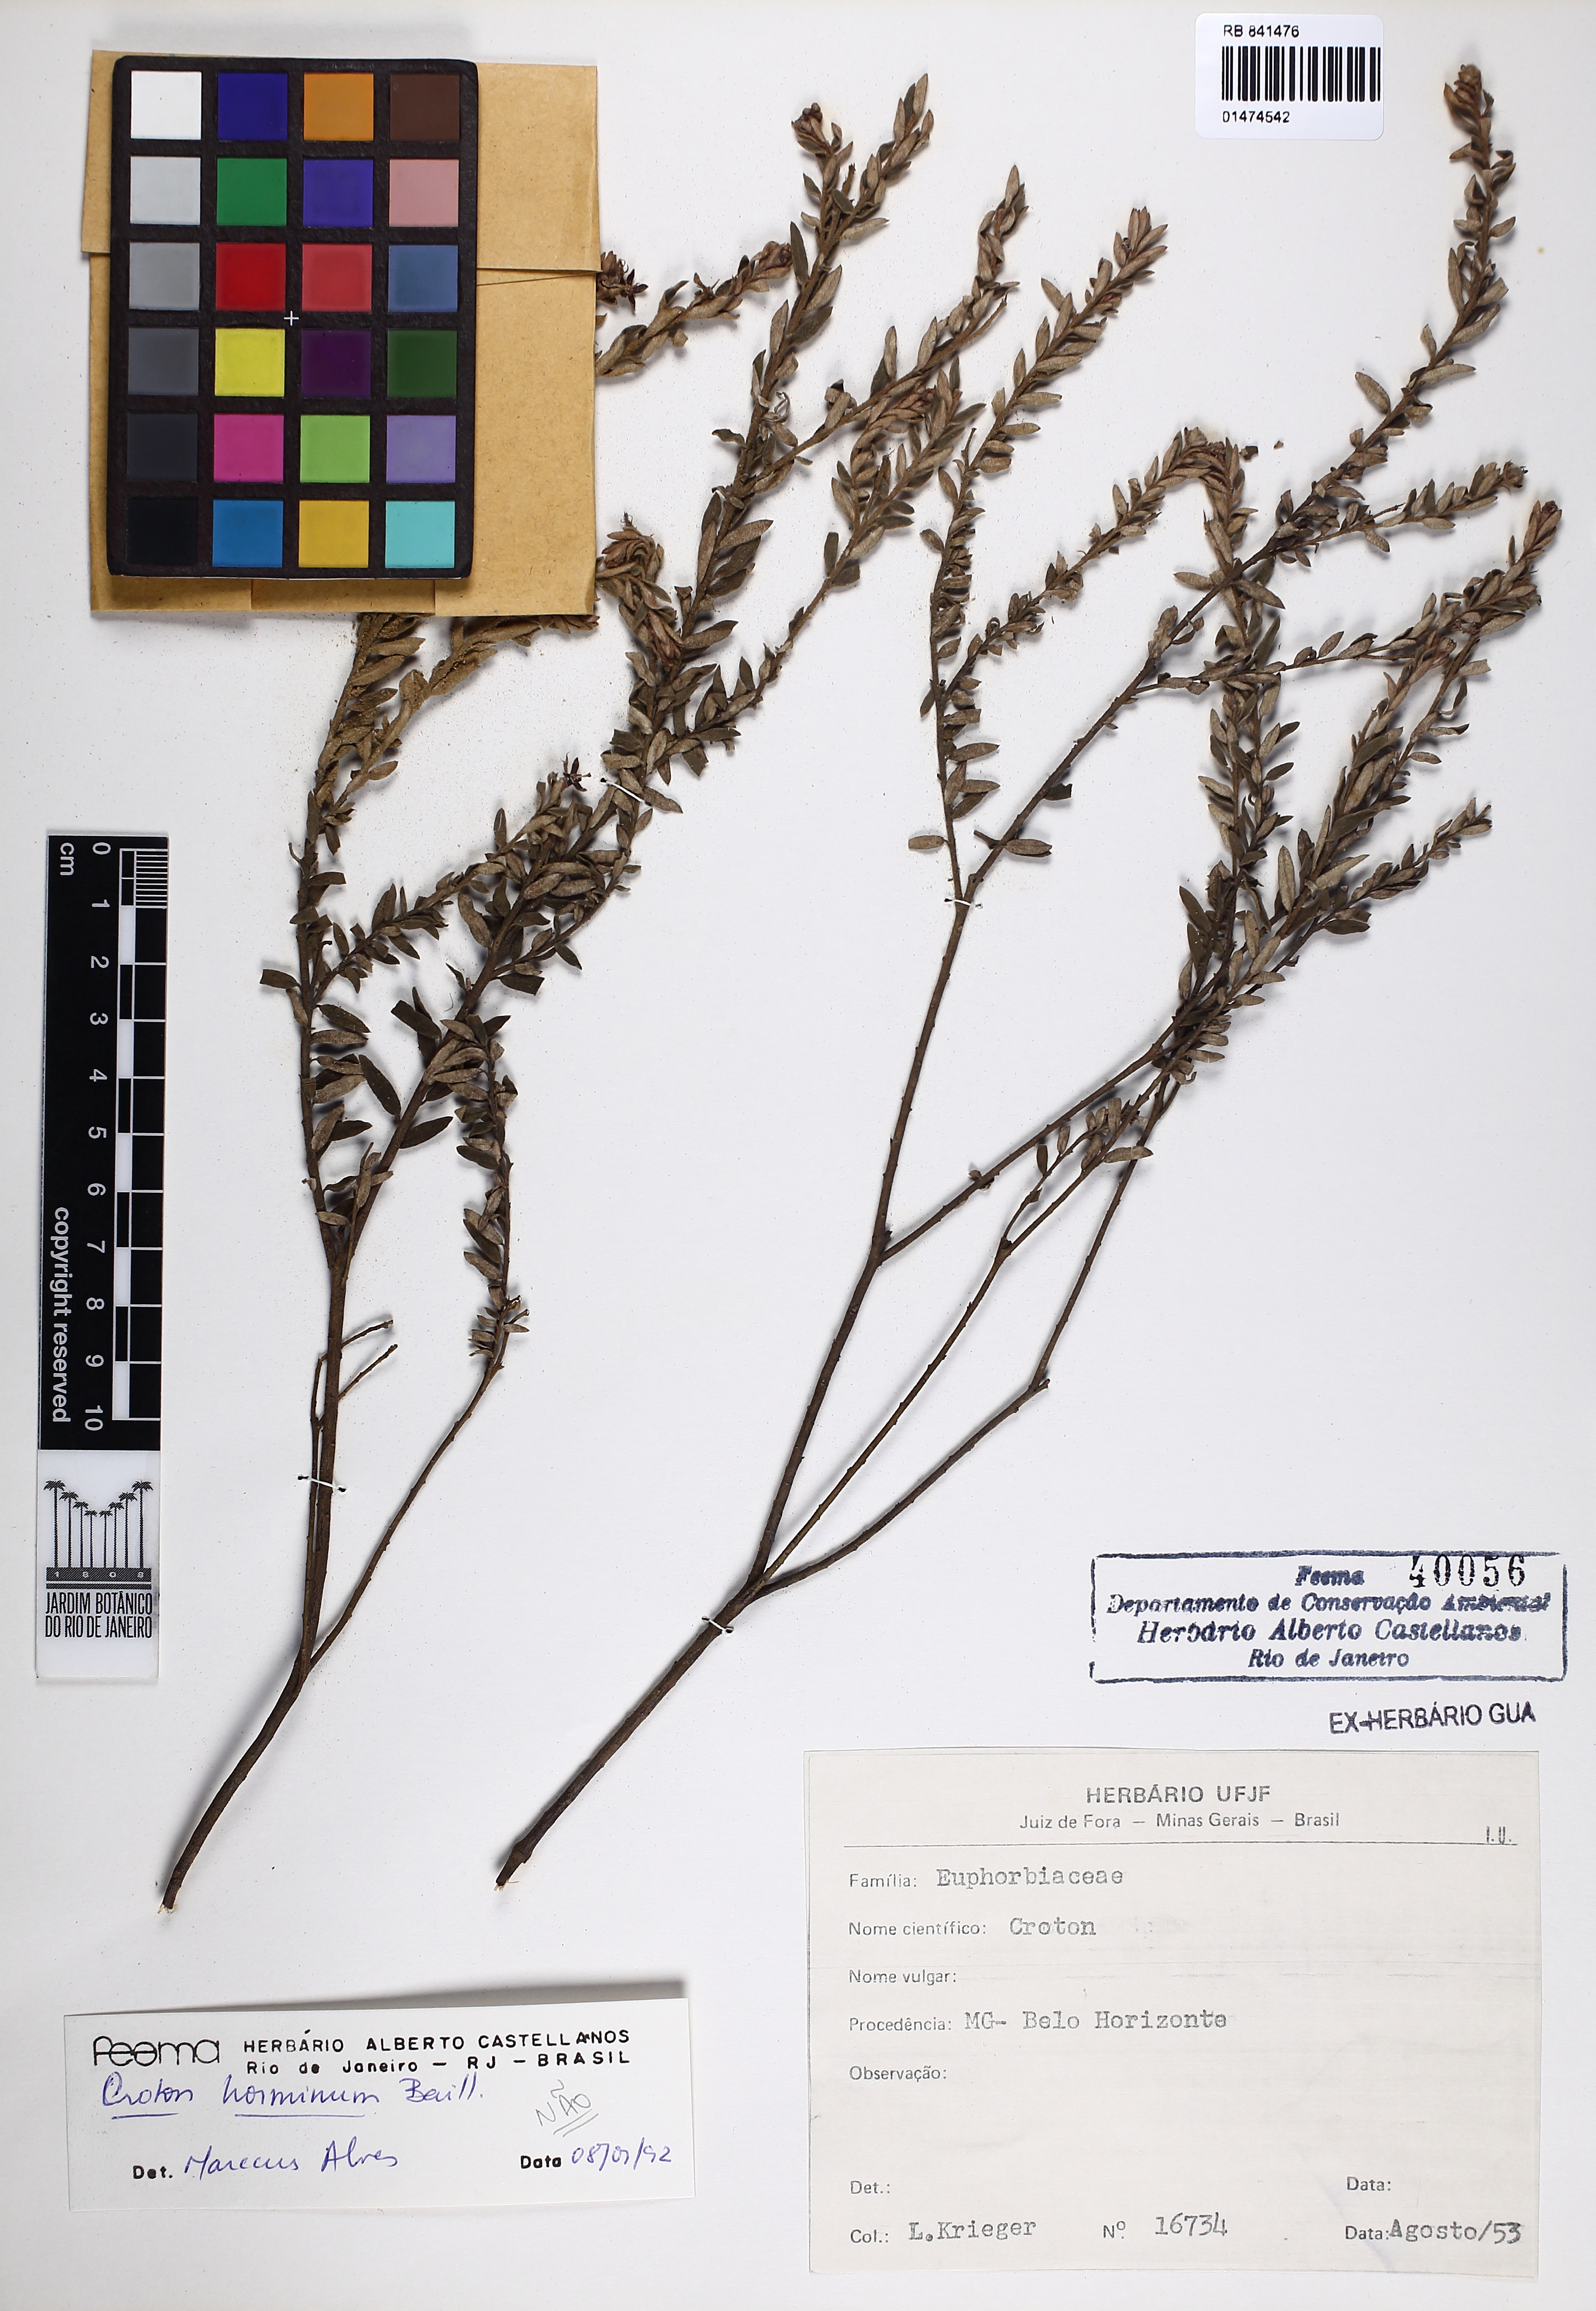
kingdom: Plantae
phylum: Tracheophyta
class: Magnoliopsida
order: Malpighiales
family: Euphorbiaceae
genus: Croton
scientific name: Croton horminum
